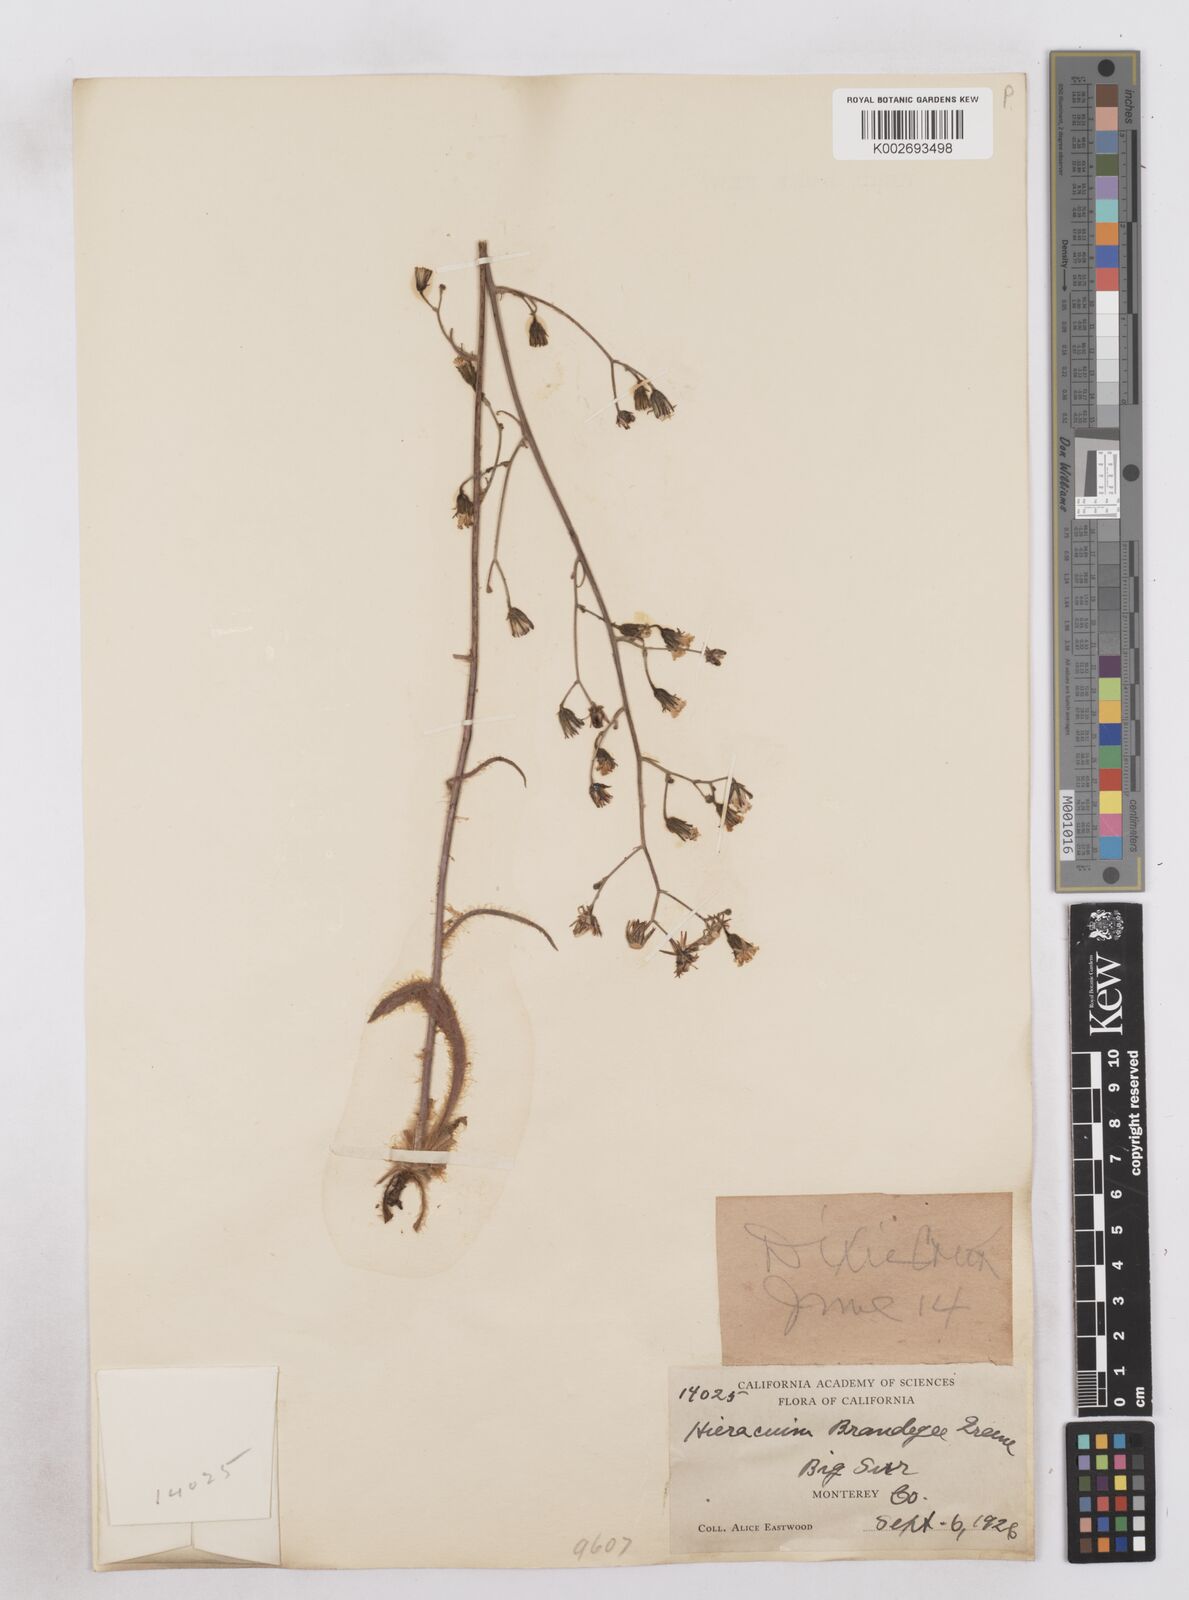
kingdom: Plantae
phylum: Tracheophyta
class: Magnoliopsida
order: Asterales
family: Asteraceae
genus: Hieracium
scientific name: Hieracium brandegeei
